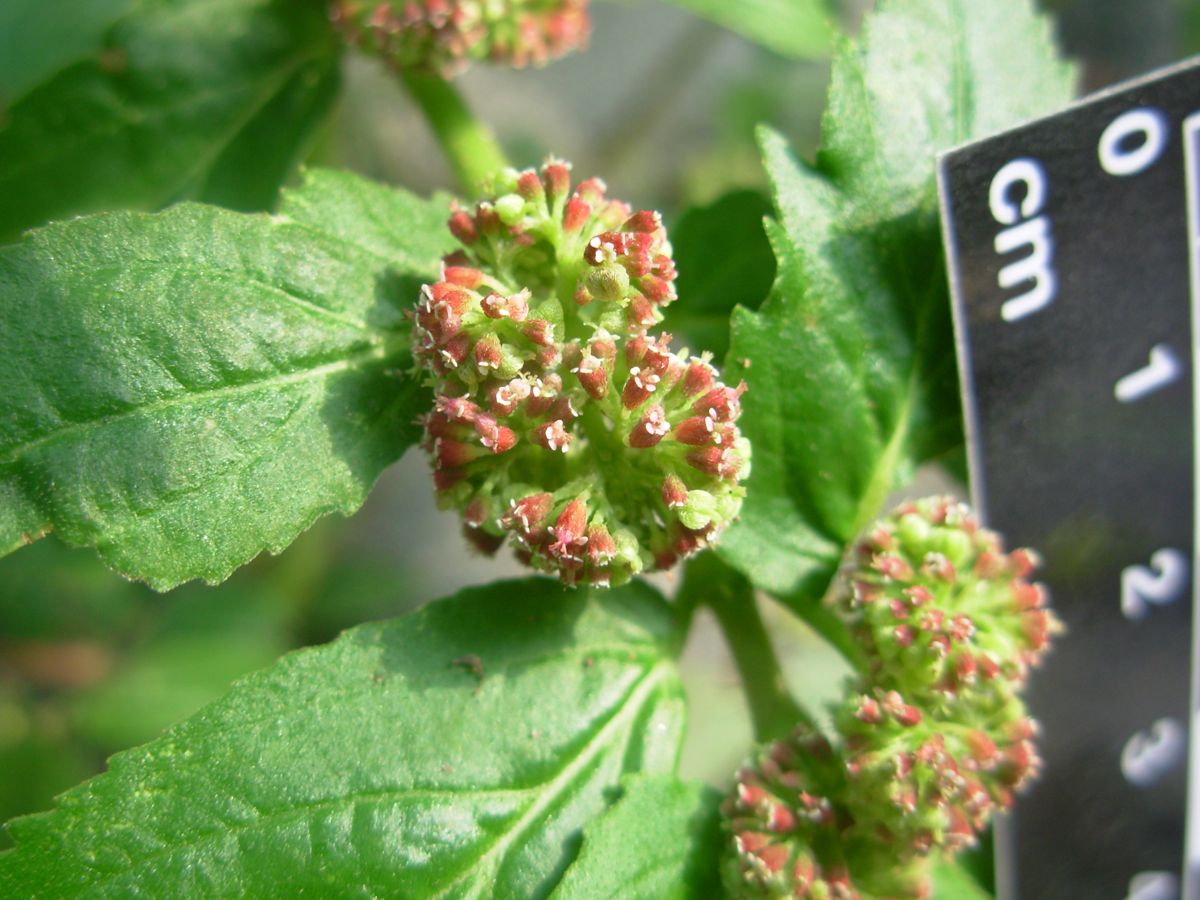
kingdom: Plantae
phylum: Tracheophyta
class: Magnoliopsida
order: Malpighiales
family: Euphorbiaceae
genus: Euphorbia
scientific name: Euphorbia hirta
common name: Pillpod sandmat
